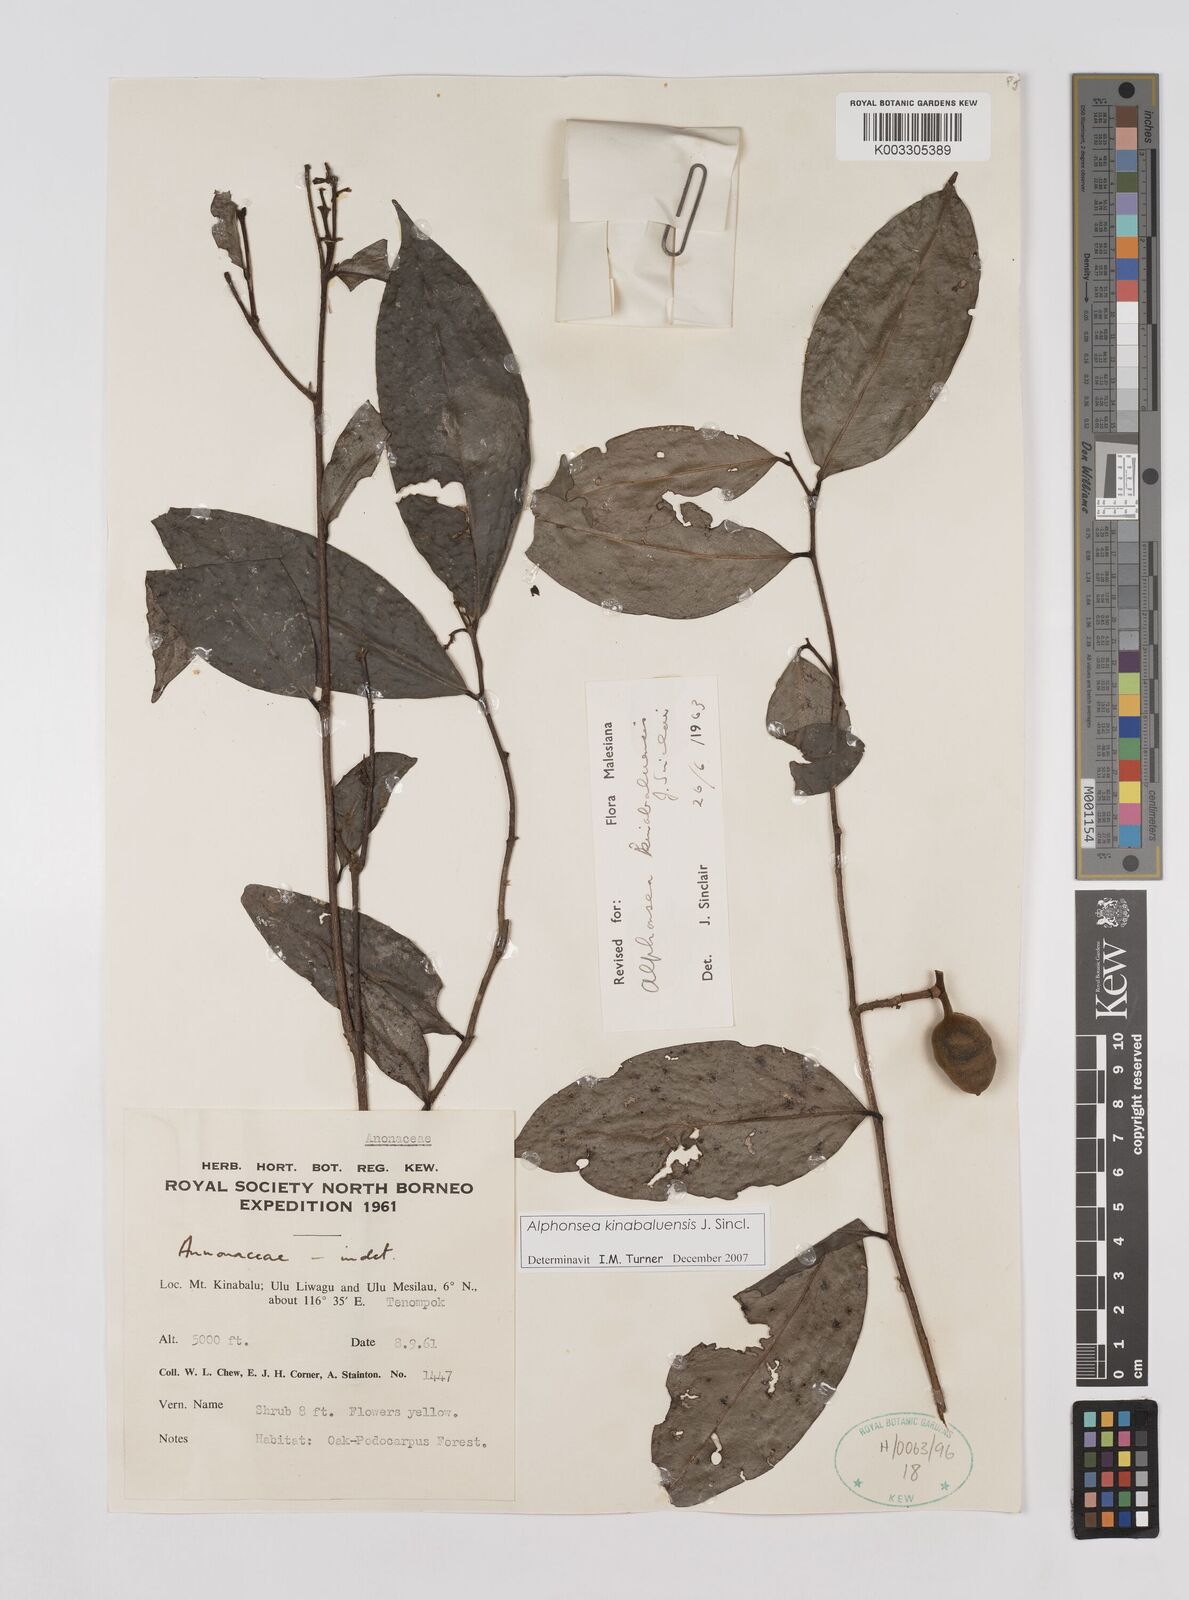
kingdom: Plantae
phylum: Tracheophyta
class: Magnoliopsida
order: Magnoliales
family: Annonaceae
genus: Alphonsea
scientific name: Alphonsea kinabaluensis
